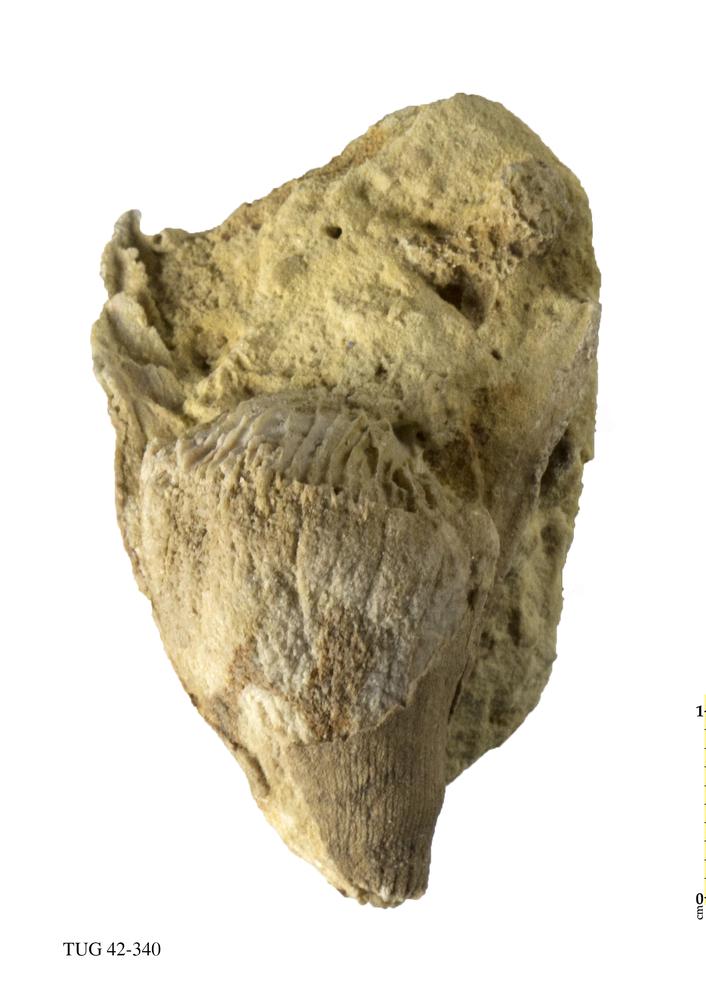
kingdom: Animalia
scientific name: Animalia
